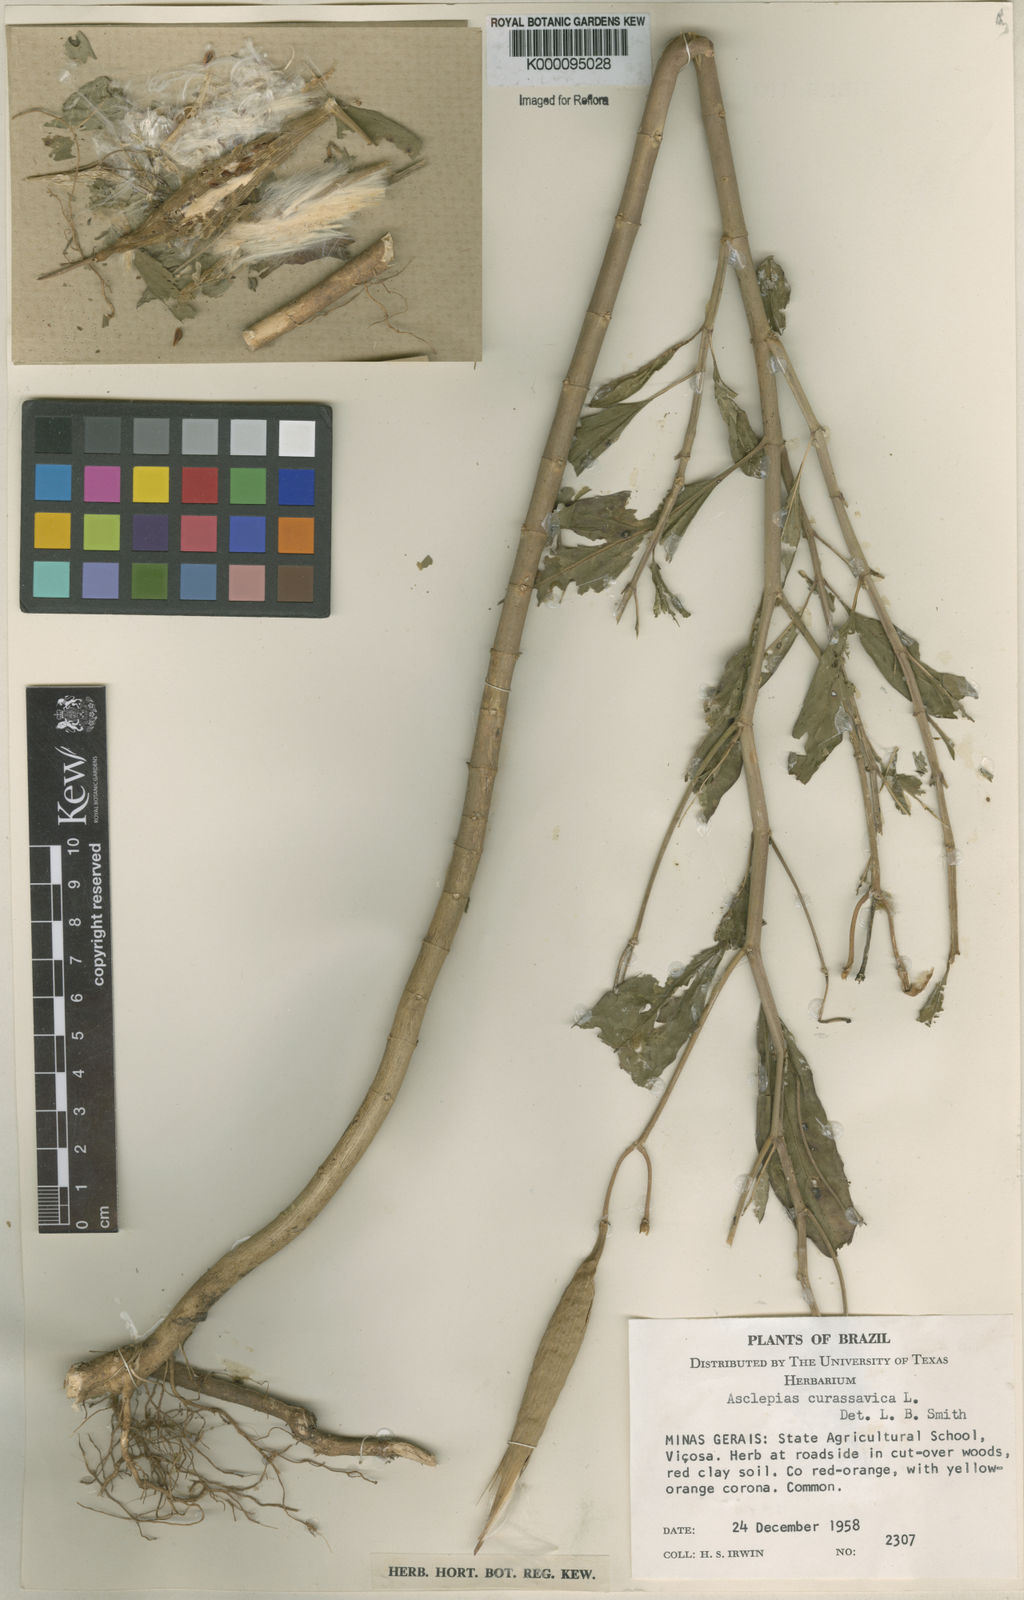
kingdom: Plantae
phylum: Tracheophyta
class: Magnoliopsida
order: Gentianales
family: Apocynaceae
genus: Asclepias
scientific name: Asclepias curassavica
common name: Bloodflower
